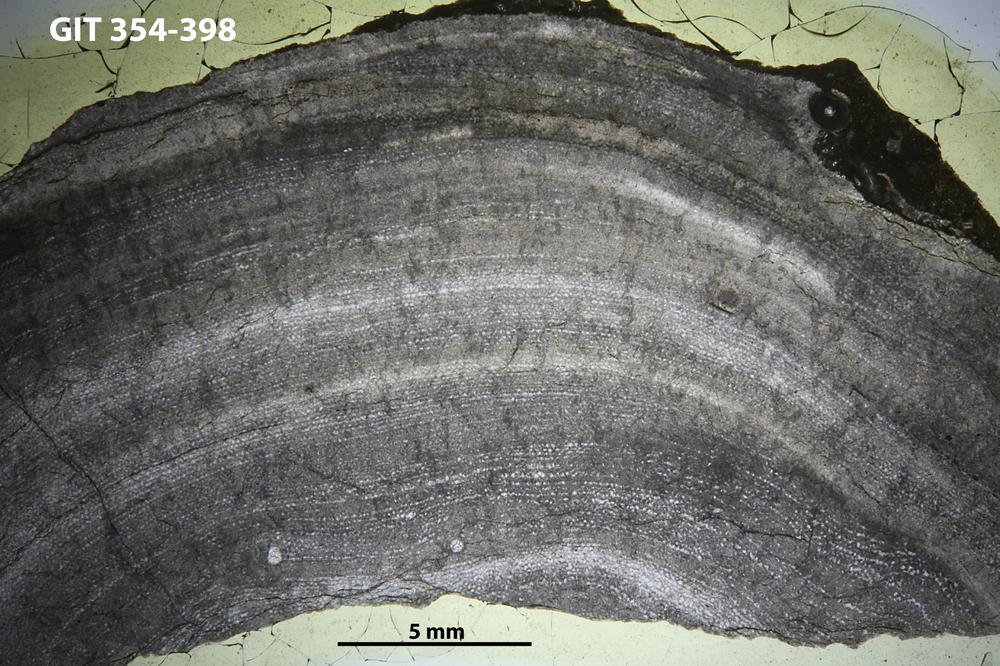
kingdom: Animalia
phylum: Porifera
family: Ecclimadictyidae
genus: Ecclimadictyon
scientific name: Ecclimadictyon Clathrodictyon microvesiculosum
